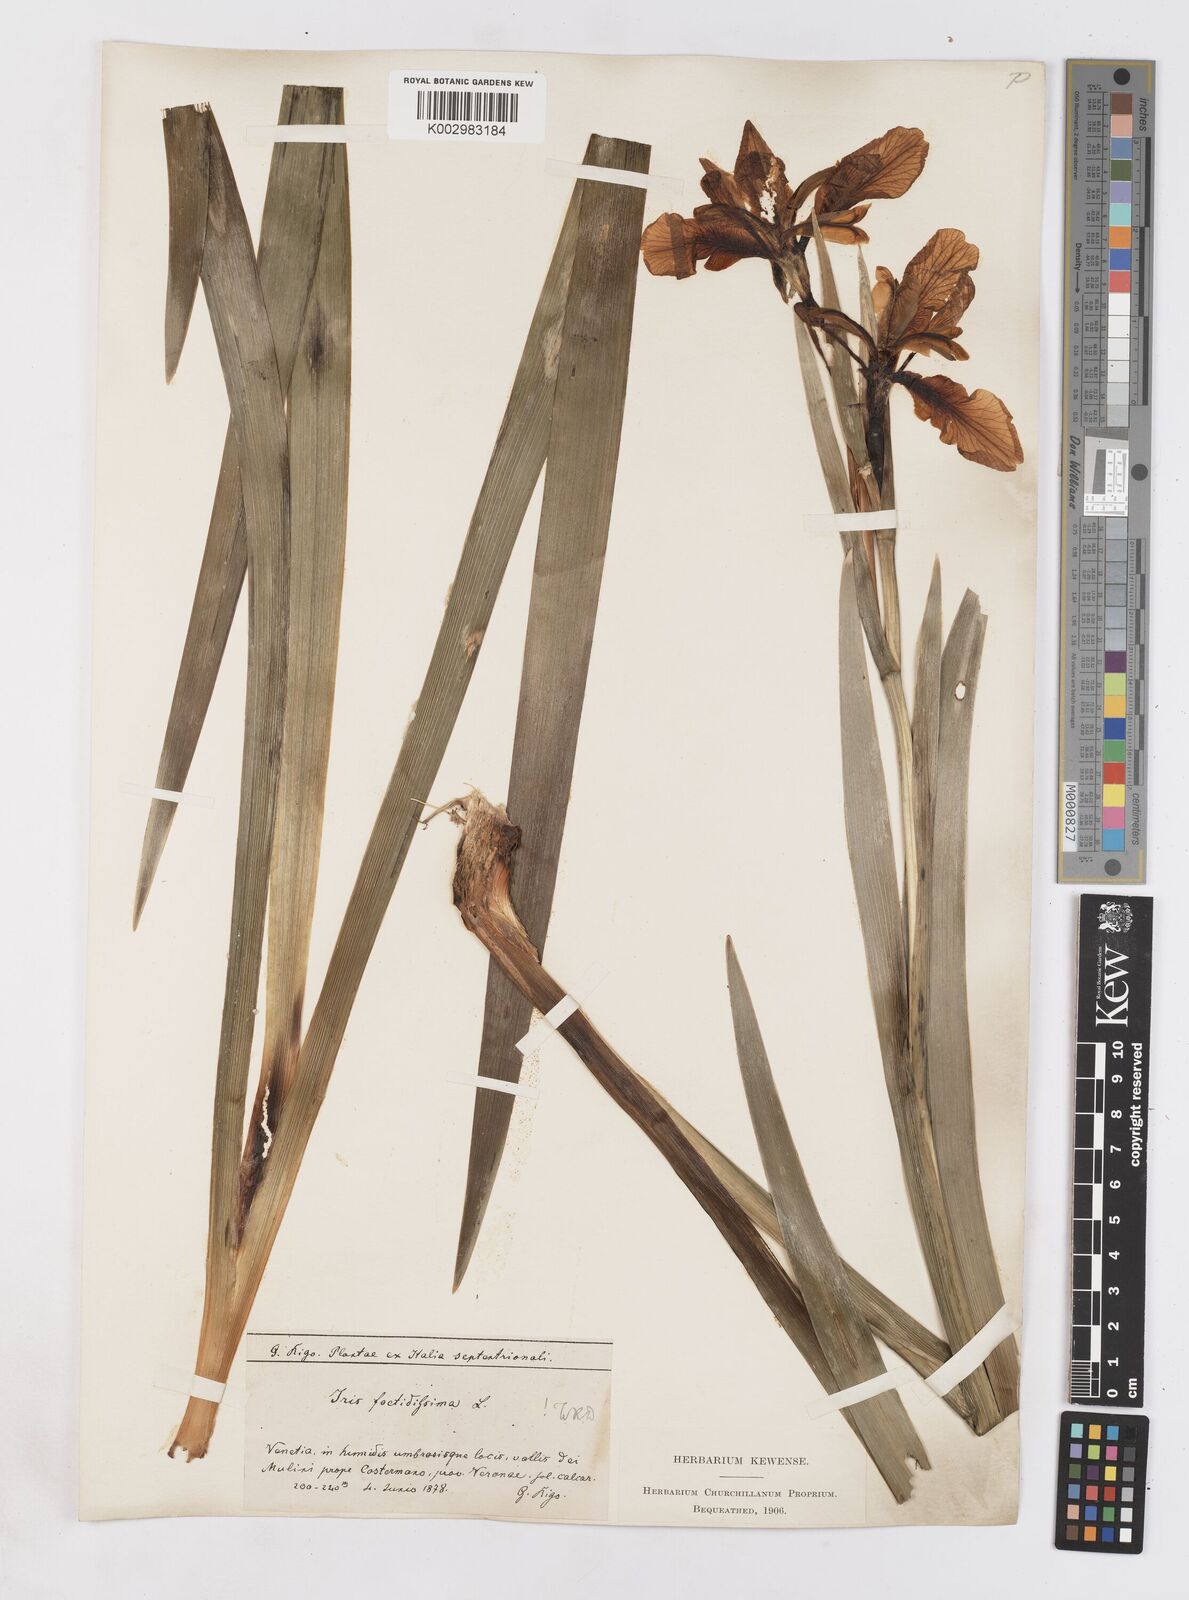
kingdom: Plantae
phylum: Tracheophyta
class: Liliopsida
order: Asparagales
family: Iridaceae
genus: Iris
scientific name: Iris foetidissima
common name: Stinking iris
